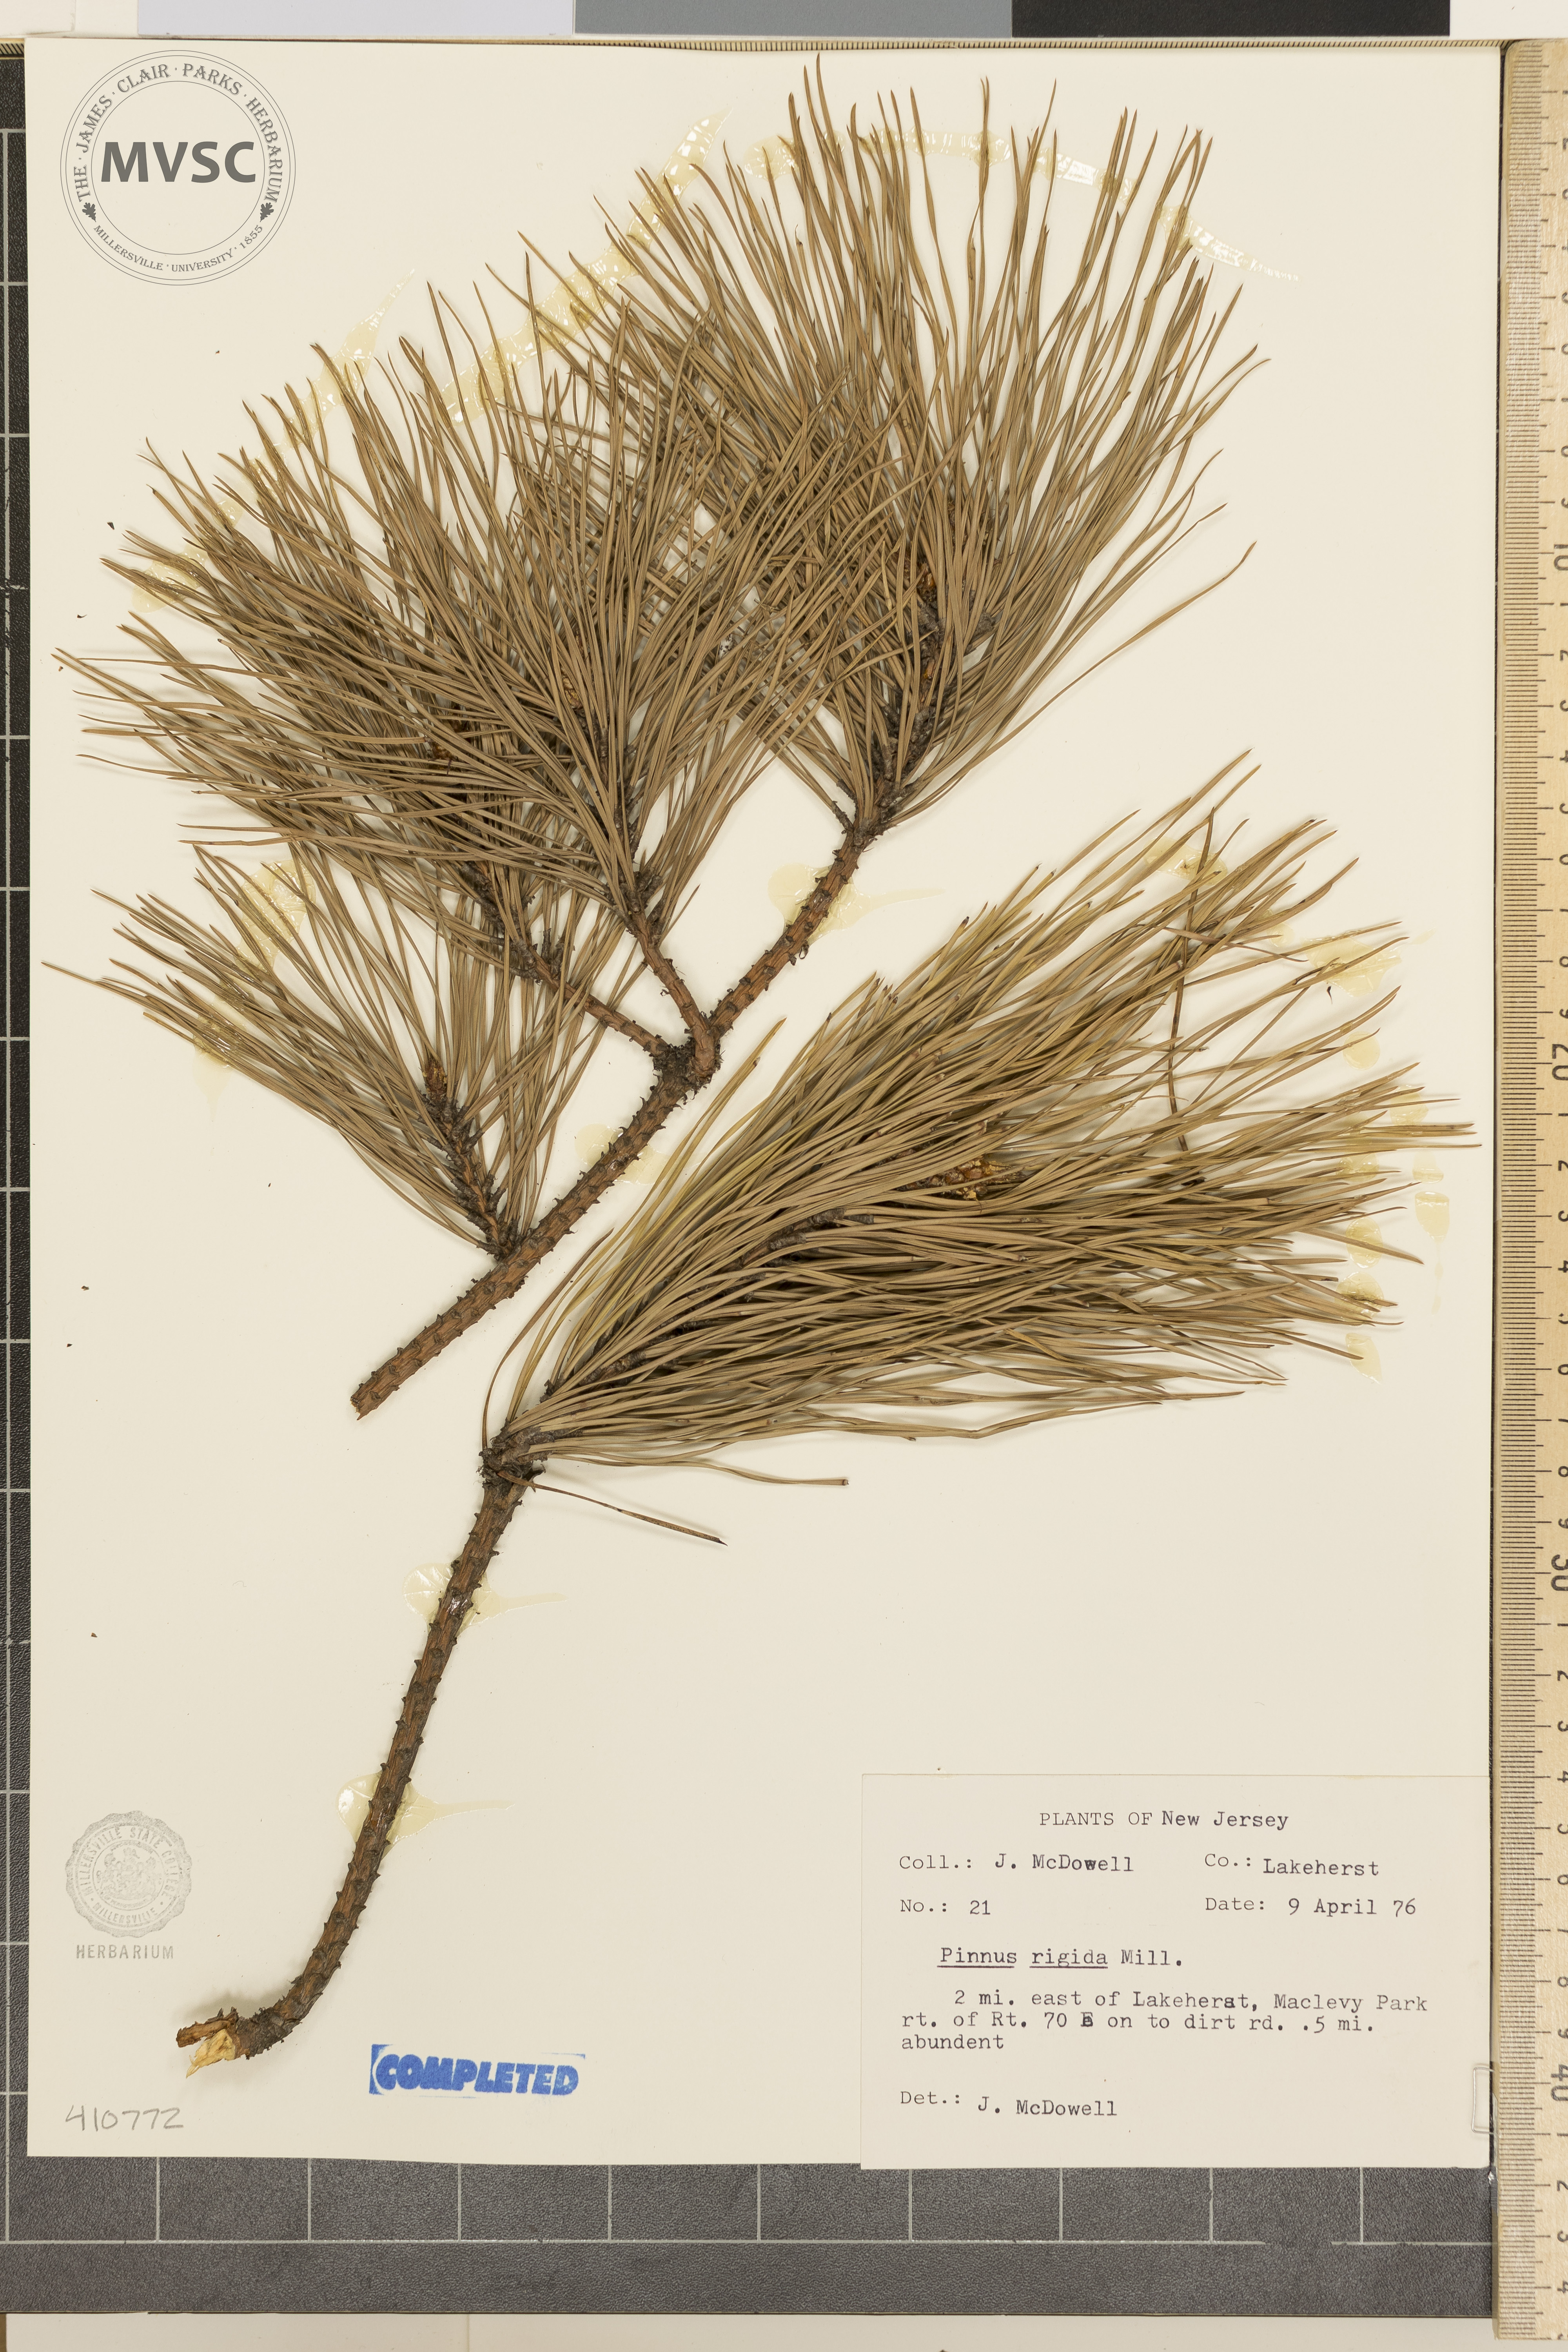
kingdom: Plantae
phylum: Tracheophyta
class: Pinopsida
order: Pinales
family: Pinaceae
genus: Pinus
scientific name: Pinus rigida
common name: Pitch pine
